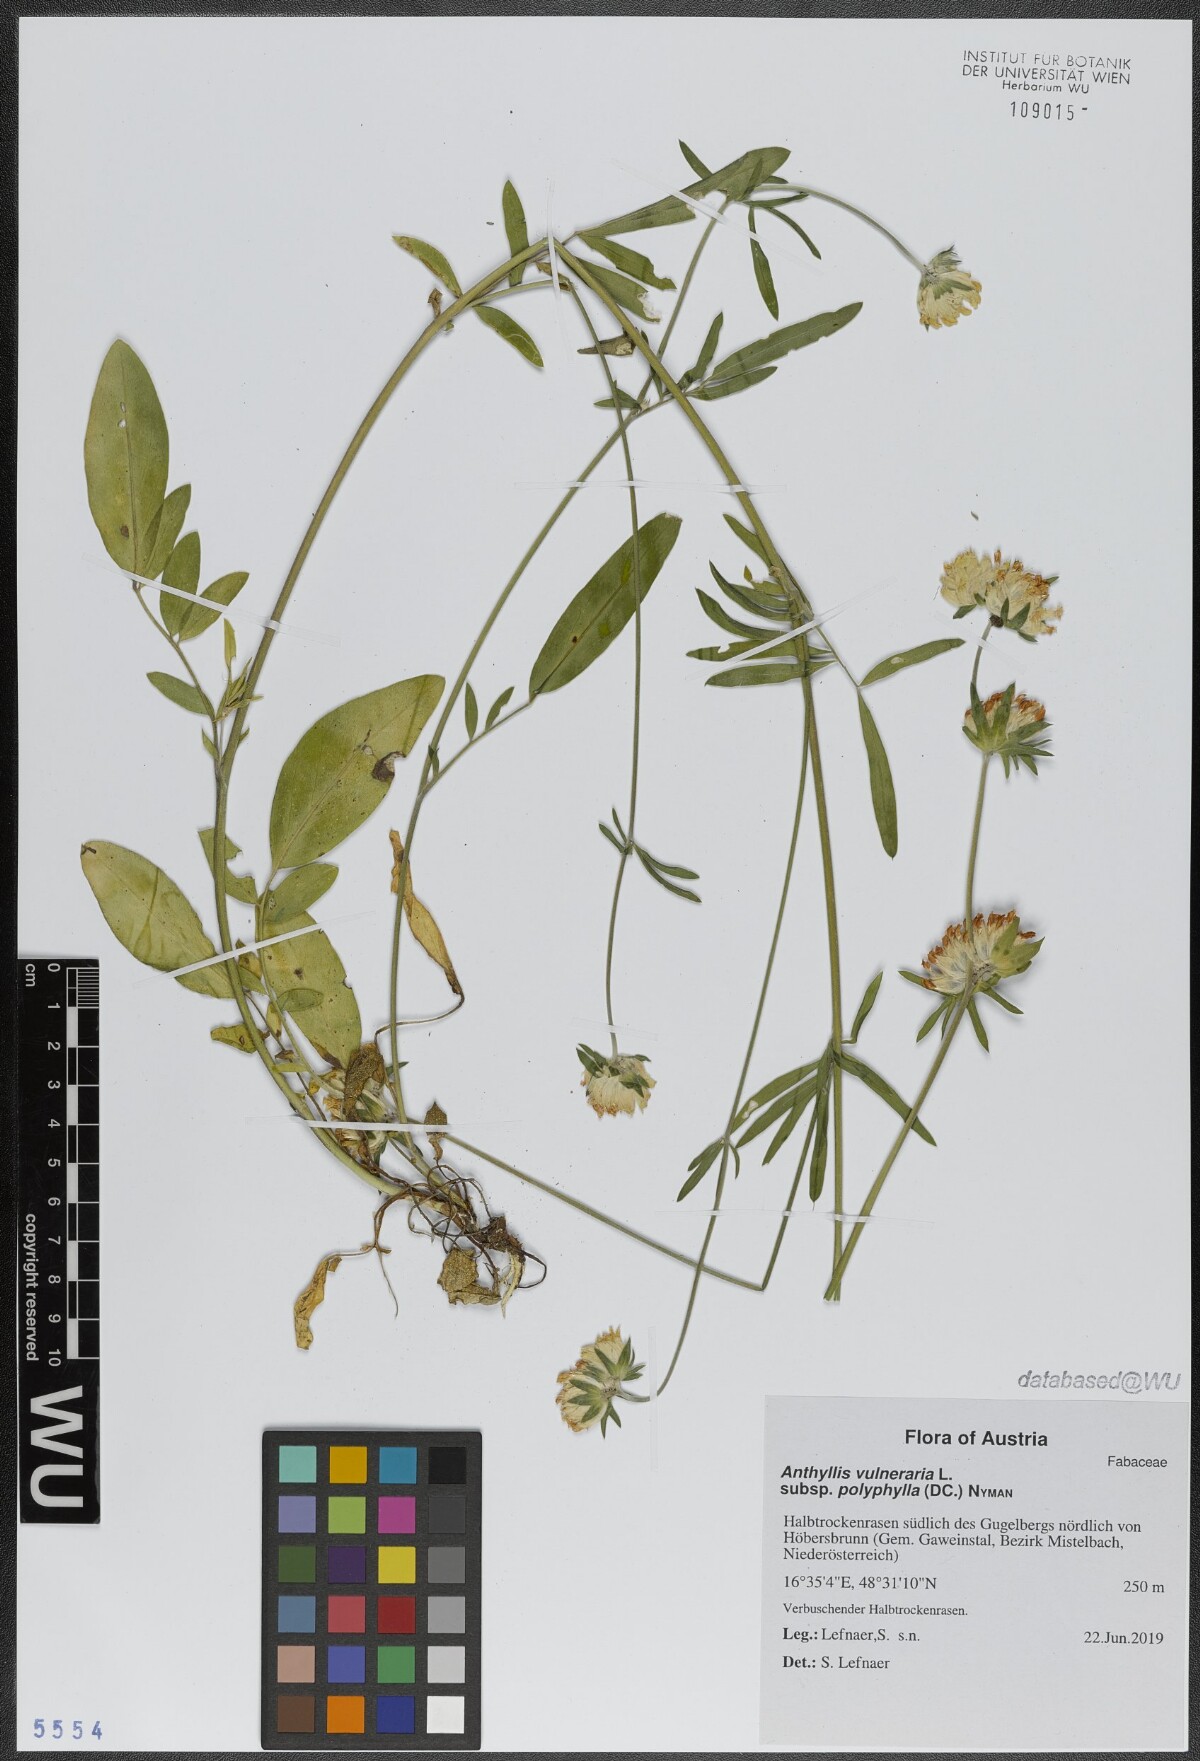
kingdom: Plantae
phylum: Tracheophyta
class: Magnoliopsida
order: Fabales
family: Fabaceae
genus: Anthyllis
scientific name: Anthyllis vulneraria
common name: Kidney vetch
